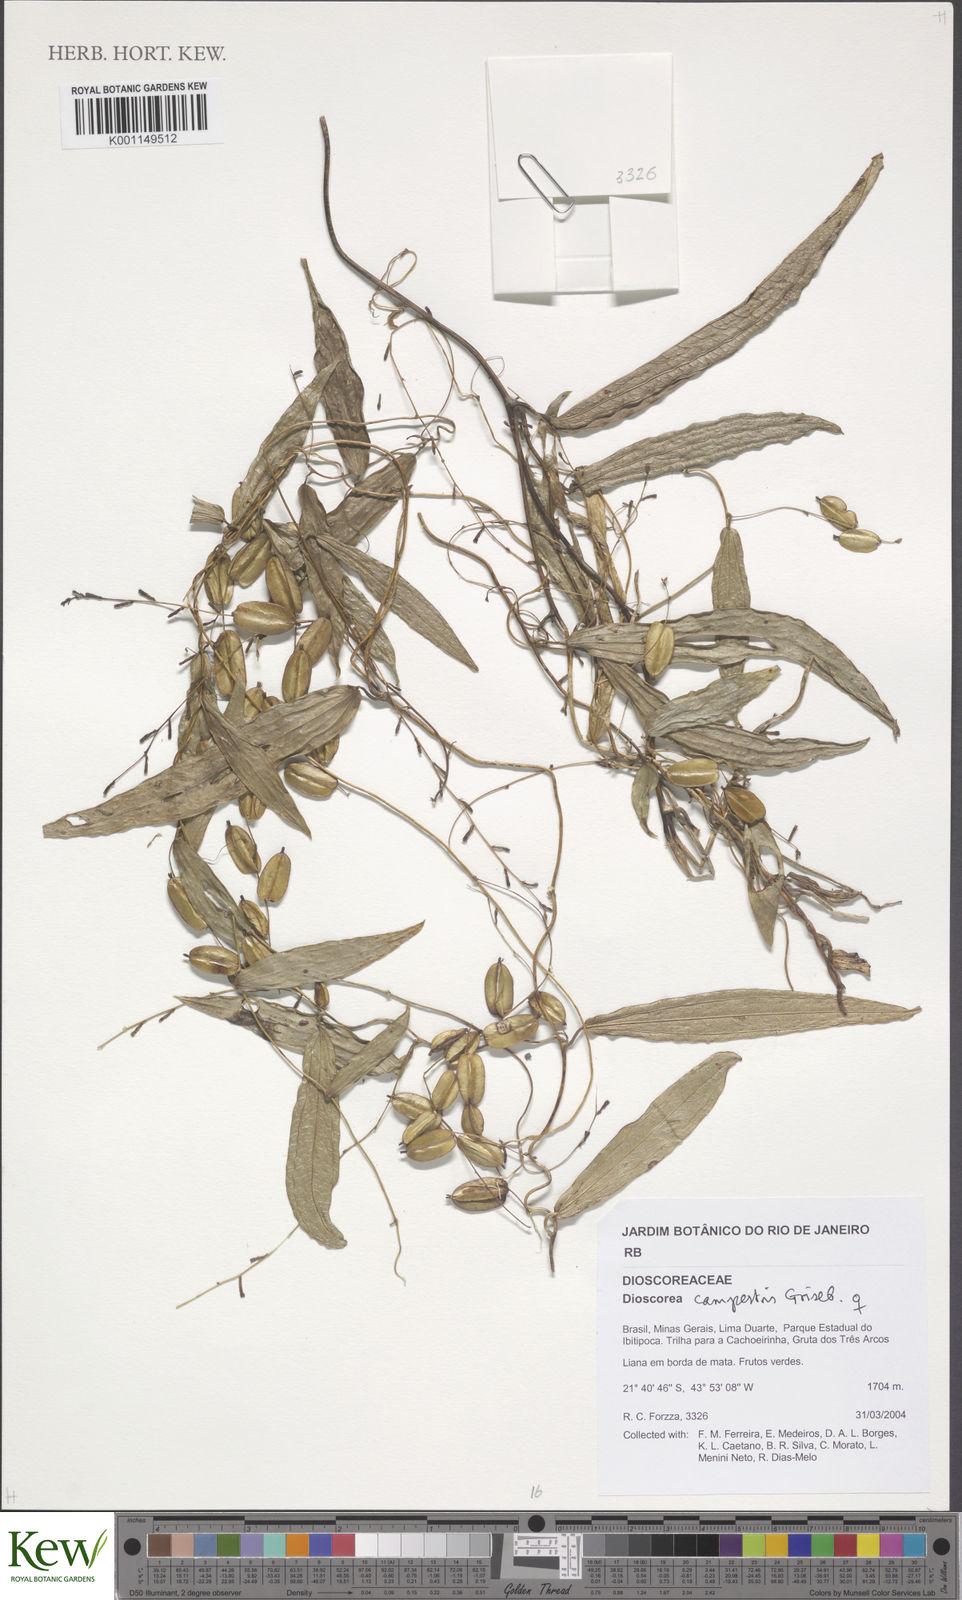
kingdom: Plantae
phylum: Tracheophyta
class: Liliopsida
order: Dioscoreales
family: Dioscoreaceae
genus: Dioscorea
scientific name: Dioscorea campestris
